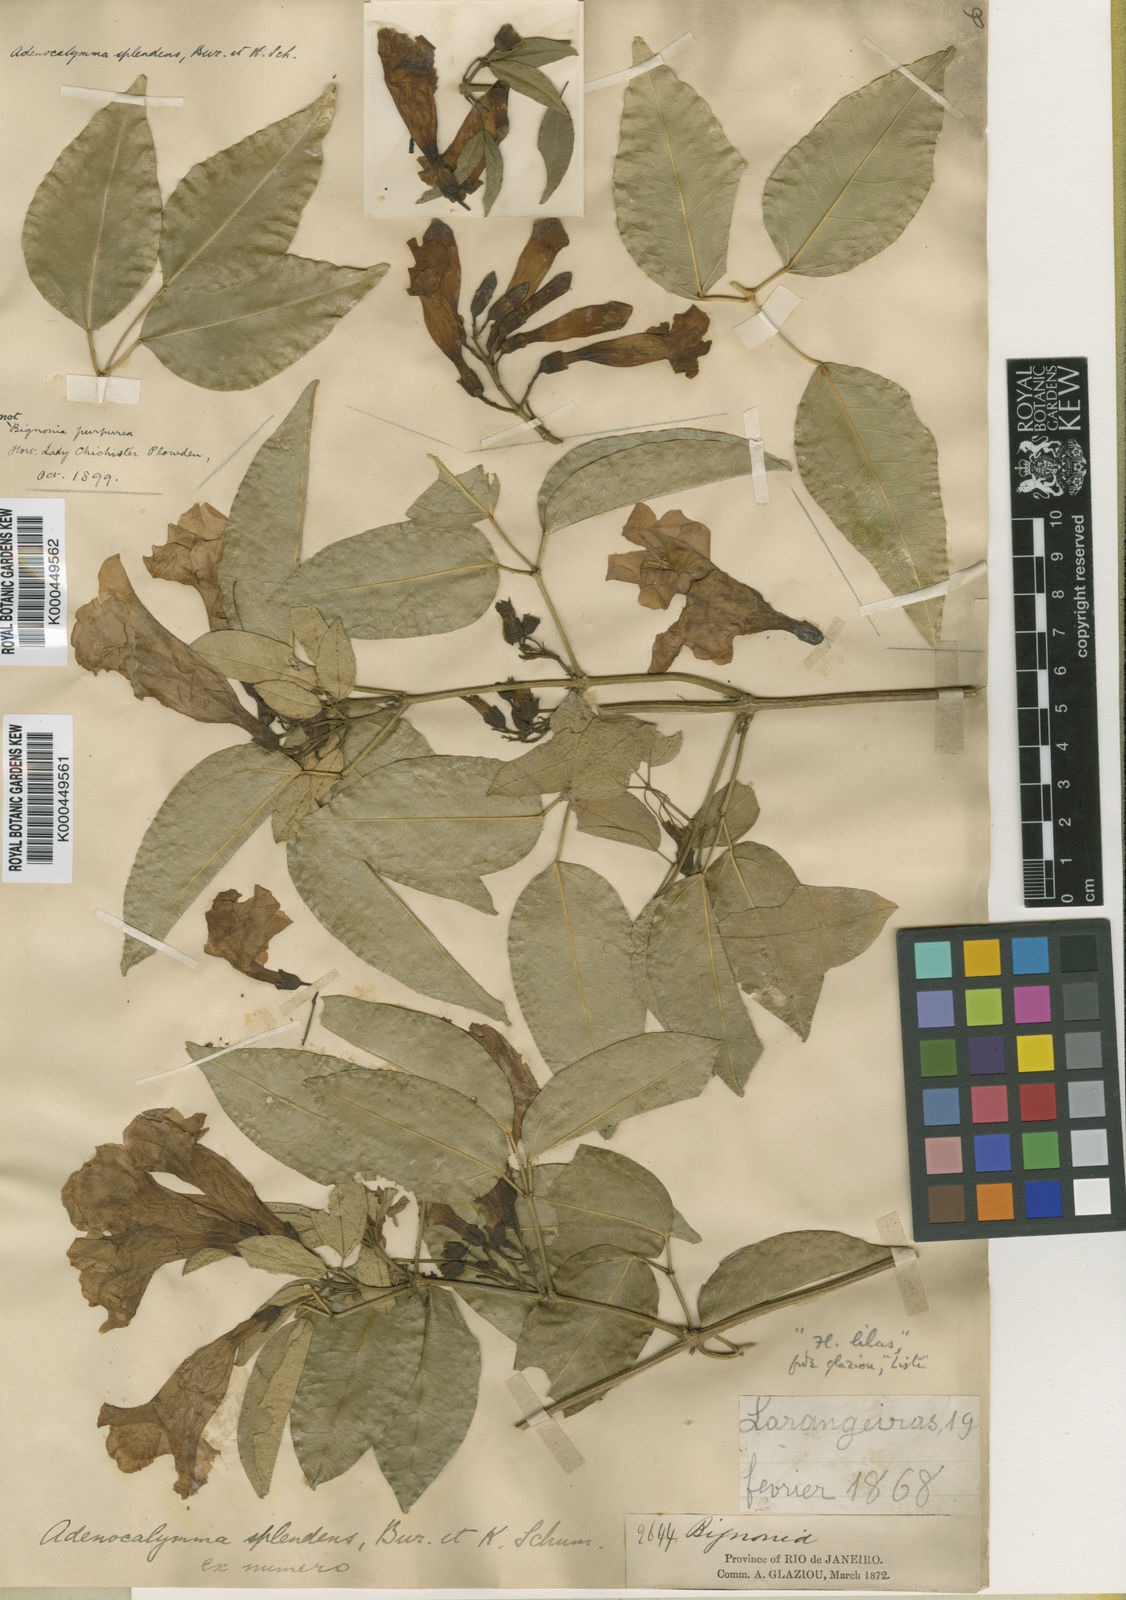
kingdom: Plantae
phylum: Tracheophyta
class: Magnoliopsida
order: Lamiales
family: Bignoniaceae
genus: Mansoa
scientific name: Mansoa difficilis
